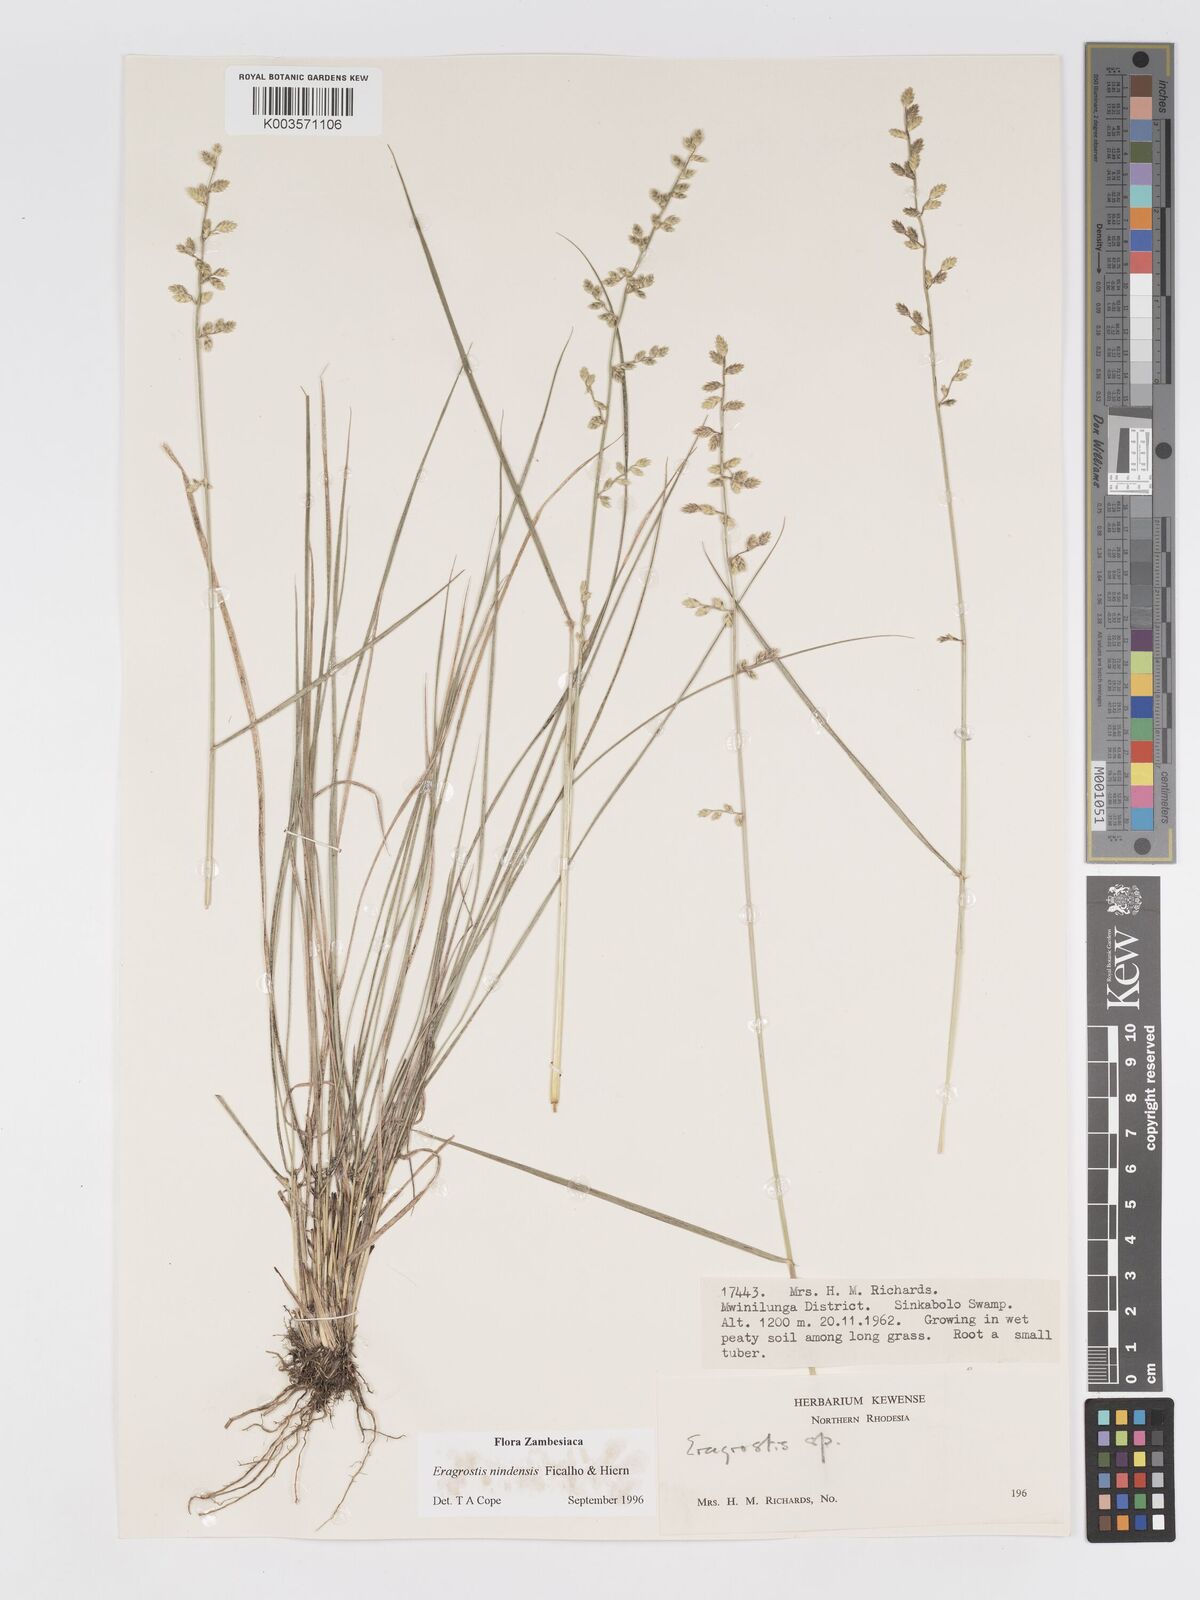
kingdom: Plantae
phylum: Tracheophyta
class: Liliopsida
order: Poales
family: Poaceae
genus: Eragrostis
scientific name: Eragrostis nindensis
